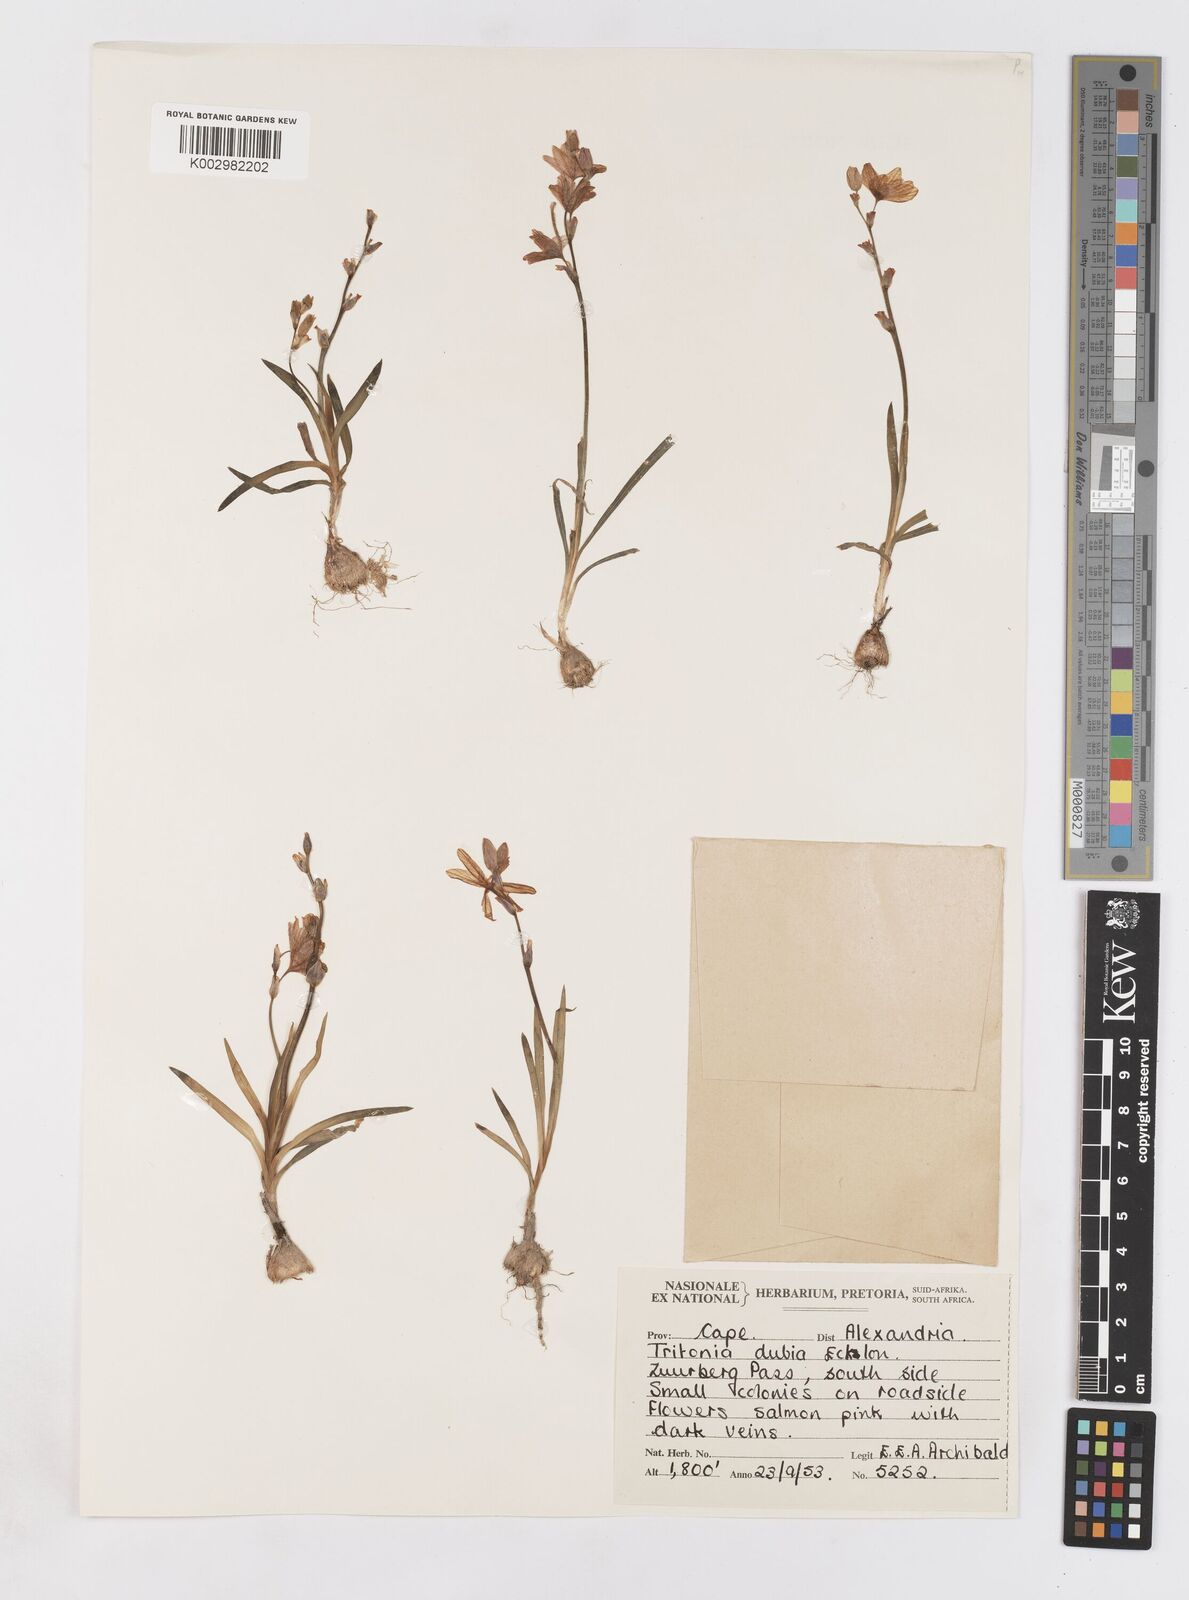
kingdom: Plantae
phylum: Tracheophyta
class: Liliopsida
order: Asparagales
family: Iridaceae
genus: Tritonia
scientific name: Tritonia dubia
